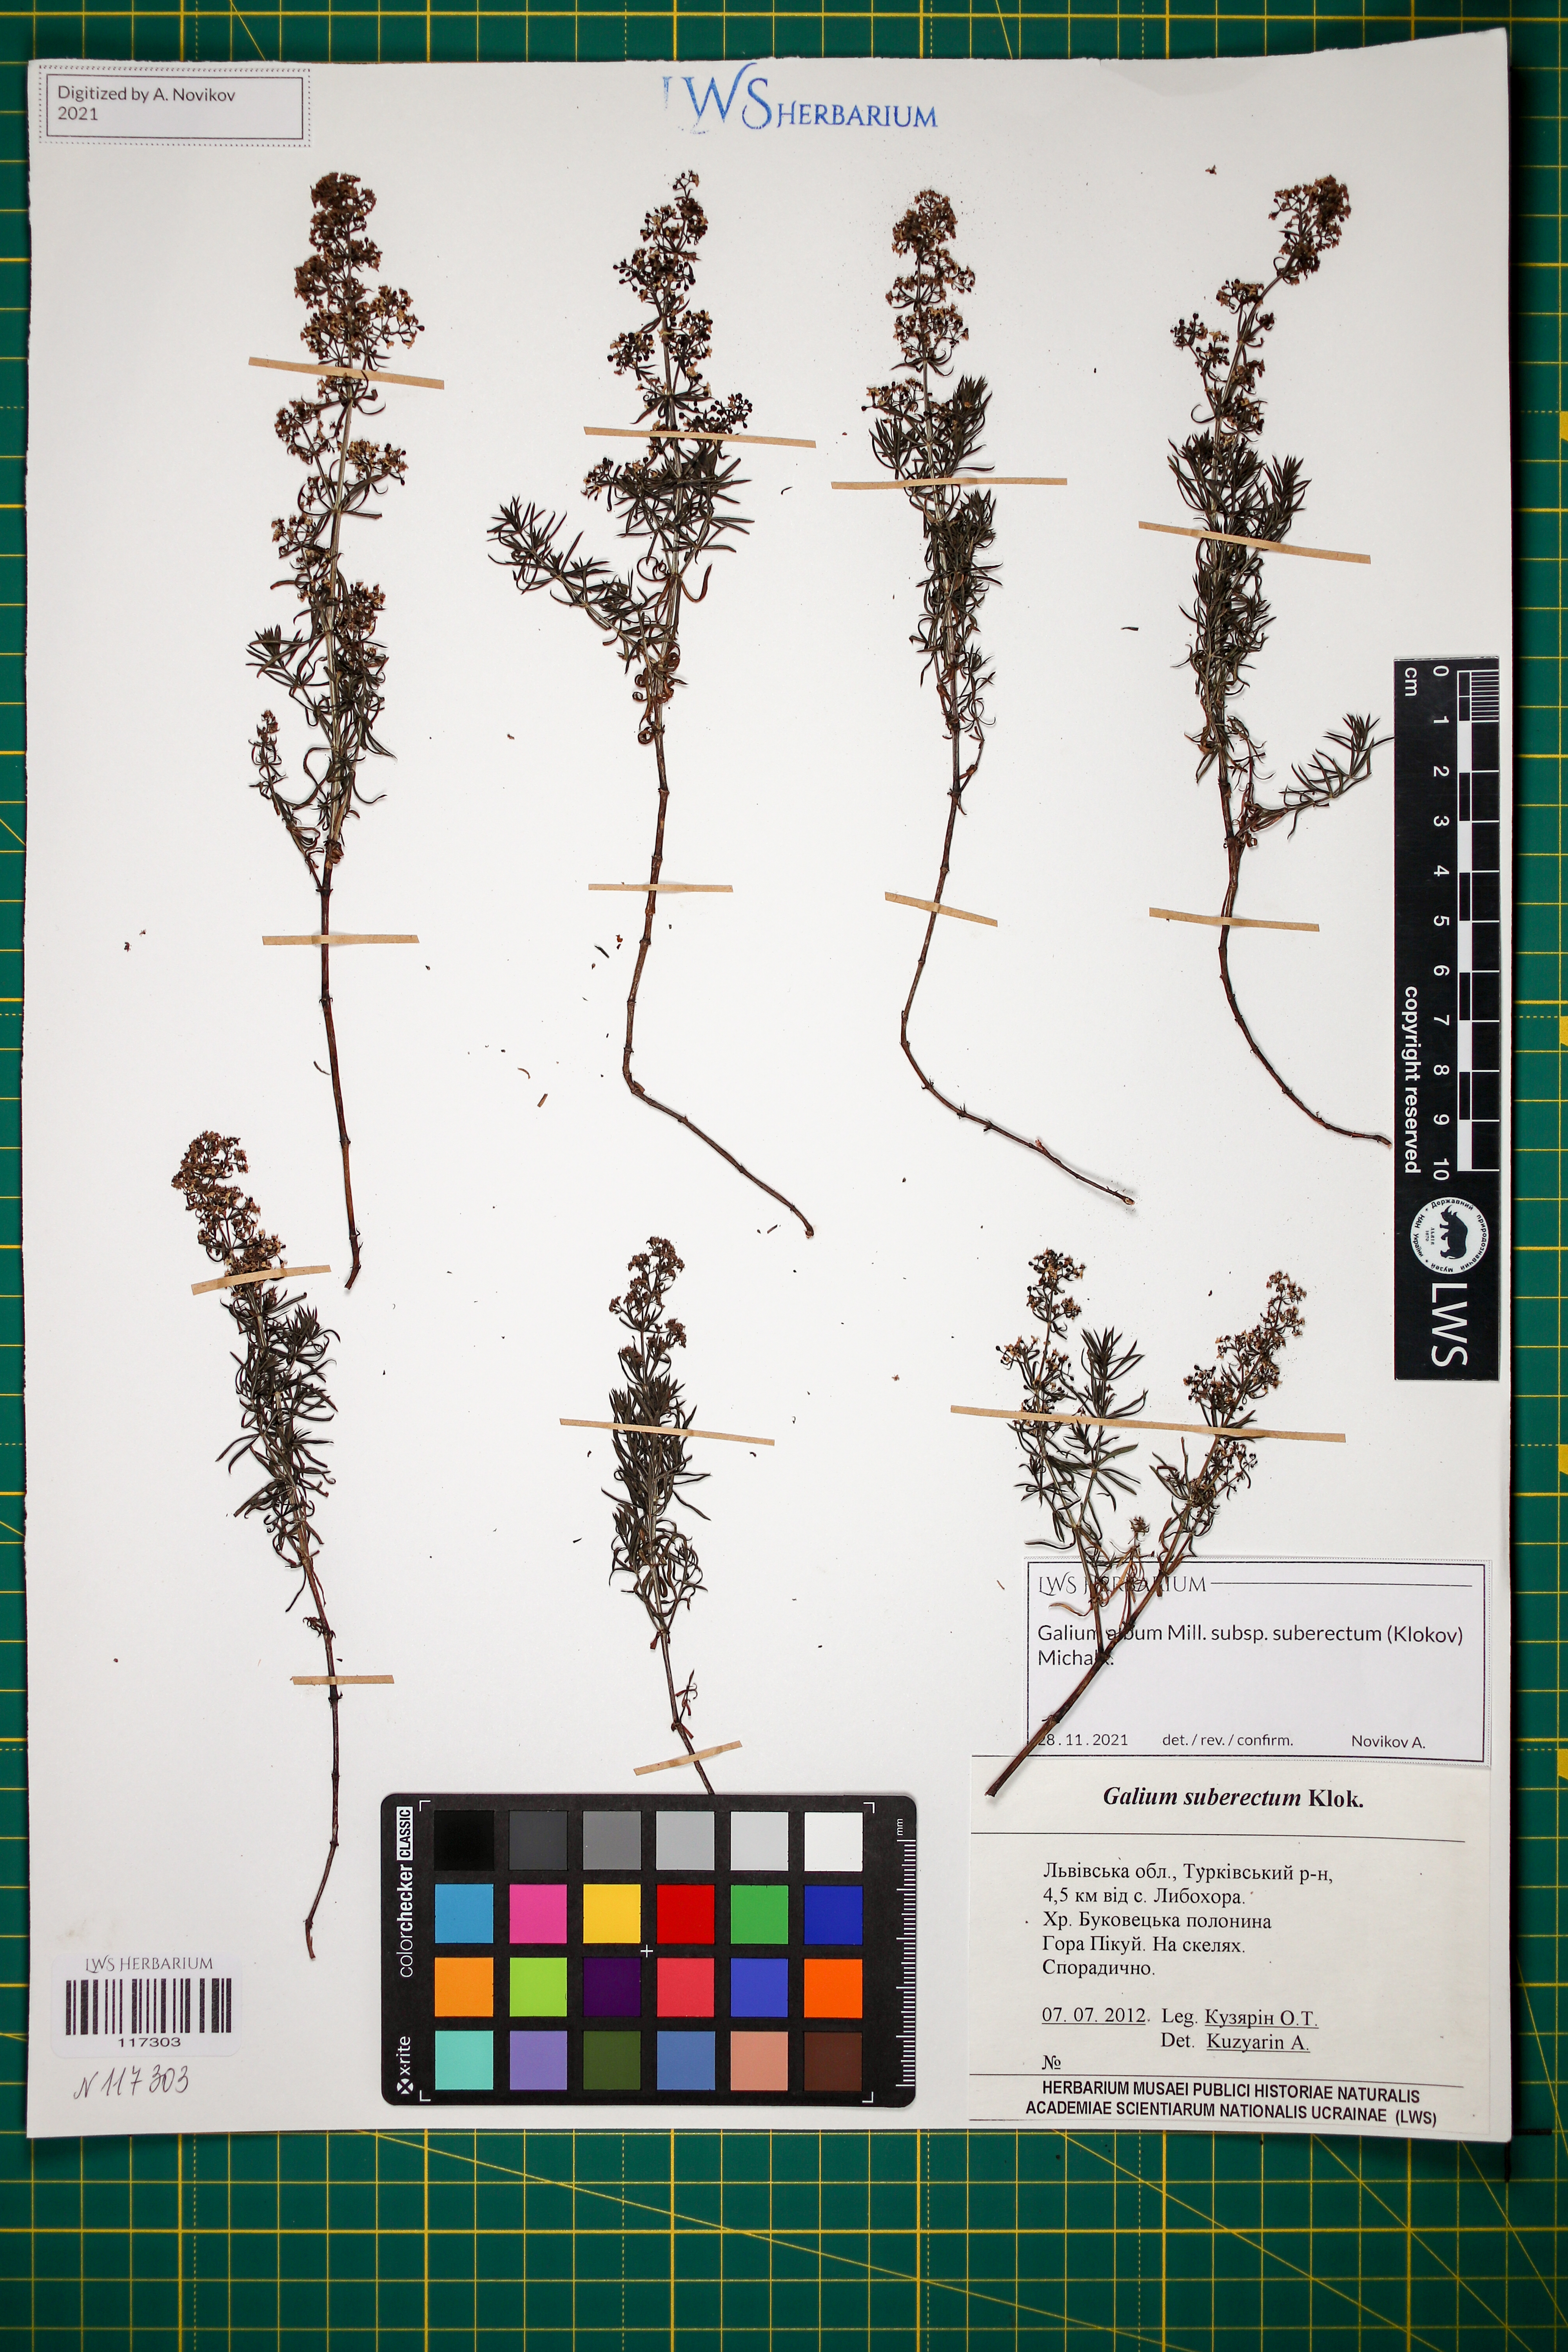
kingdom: Plantae
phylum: Tracheophyta
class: Magnoliopsida
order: Gentianales
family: Rubiaceae
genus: Galium
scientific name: Galium album
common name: White bedstraw
